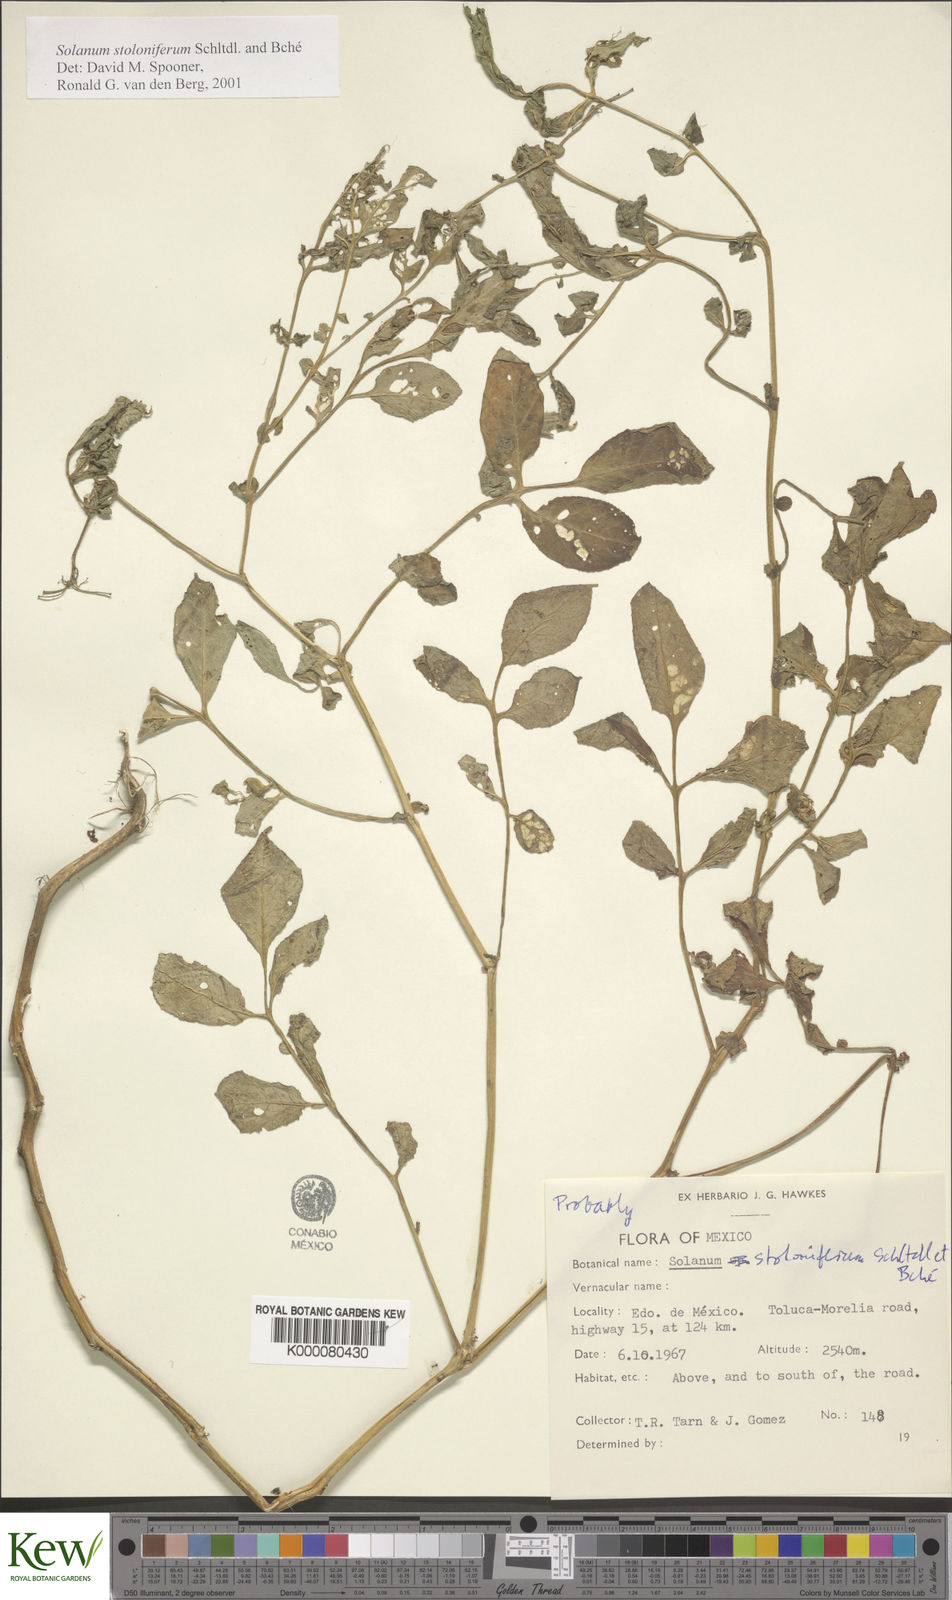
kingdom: Plantae
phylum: Tracheophyta
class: Magnoliopsida
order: Solanales
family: Solanaceae
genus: Solanum
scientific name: Solanum stoloniferum
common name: Fendler's nighshade
